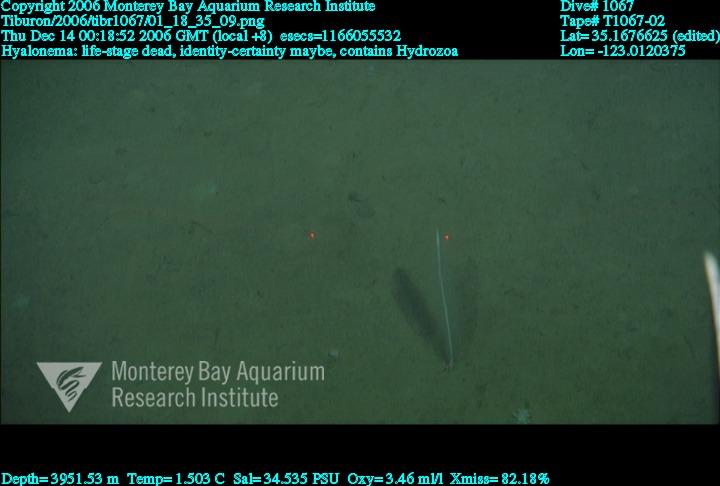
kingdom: Animalia
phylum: Porifera
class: Hexactinellida
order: Amphidiscosida
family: Hyalonematidae
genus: Hyalonema
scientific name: Hyalonema
